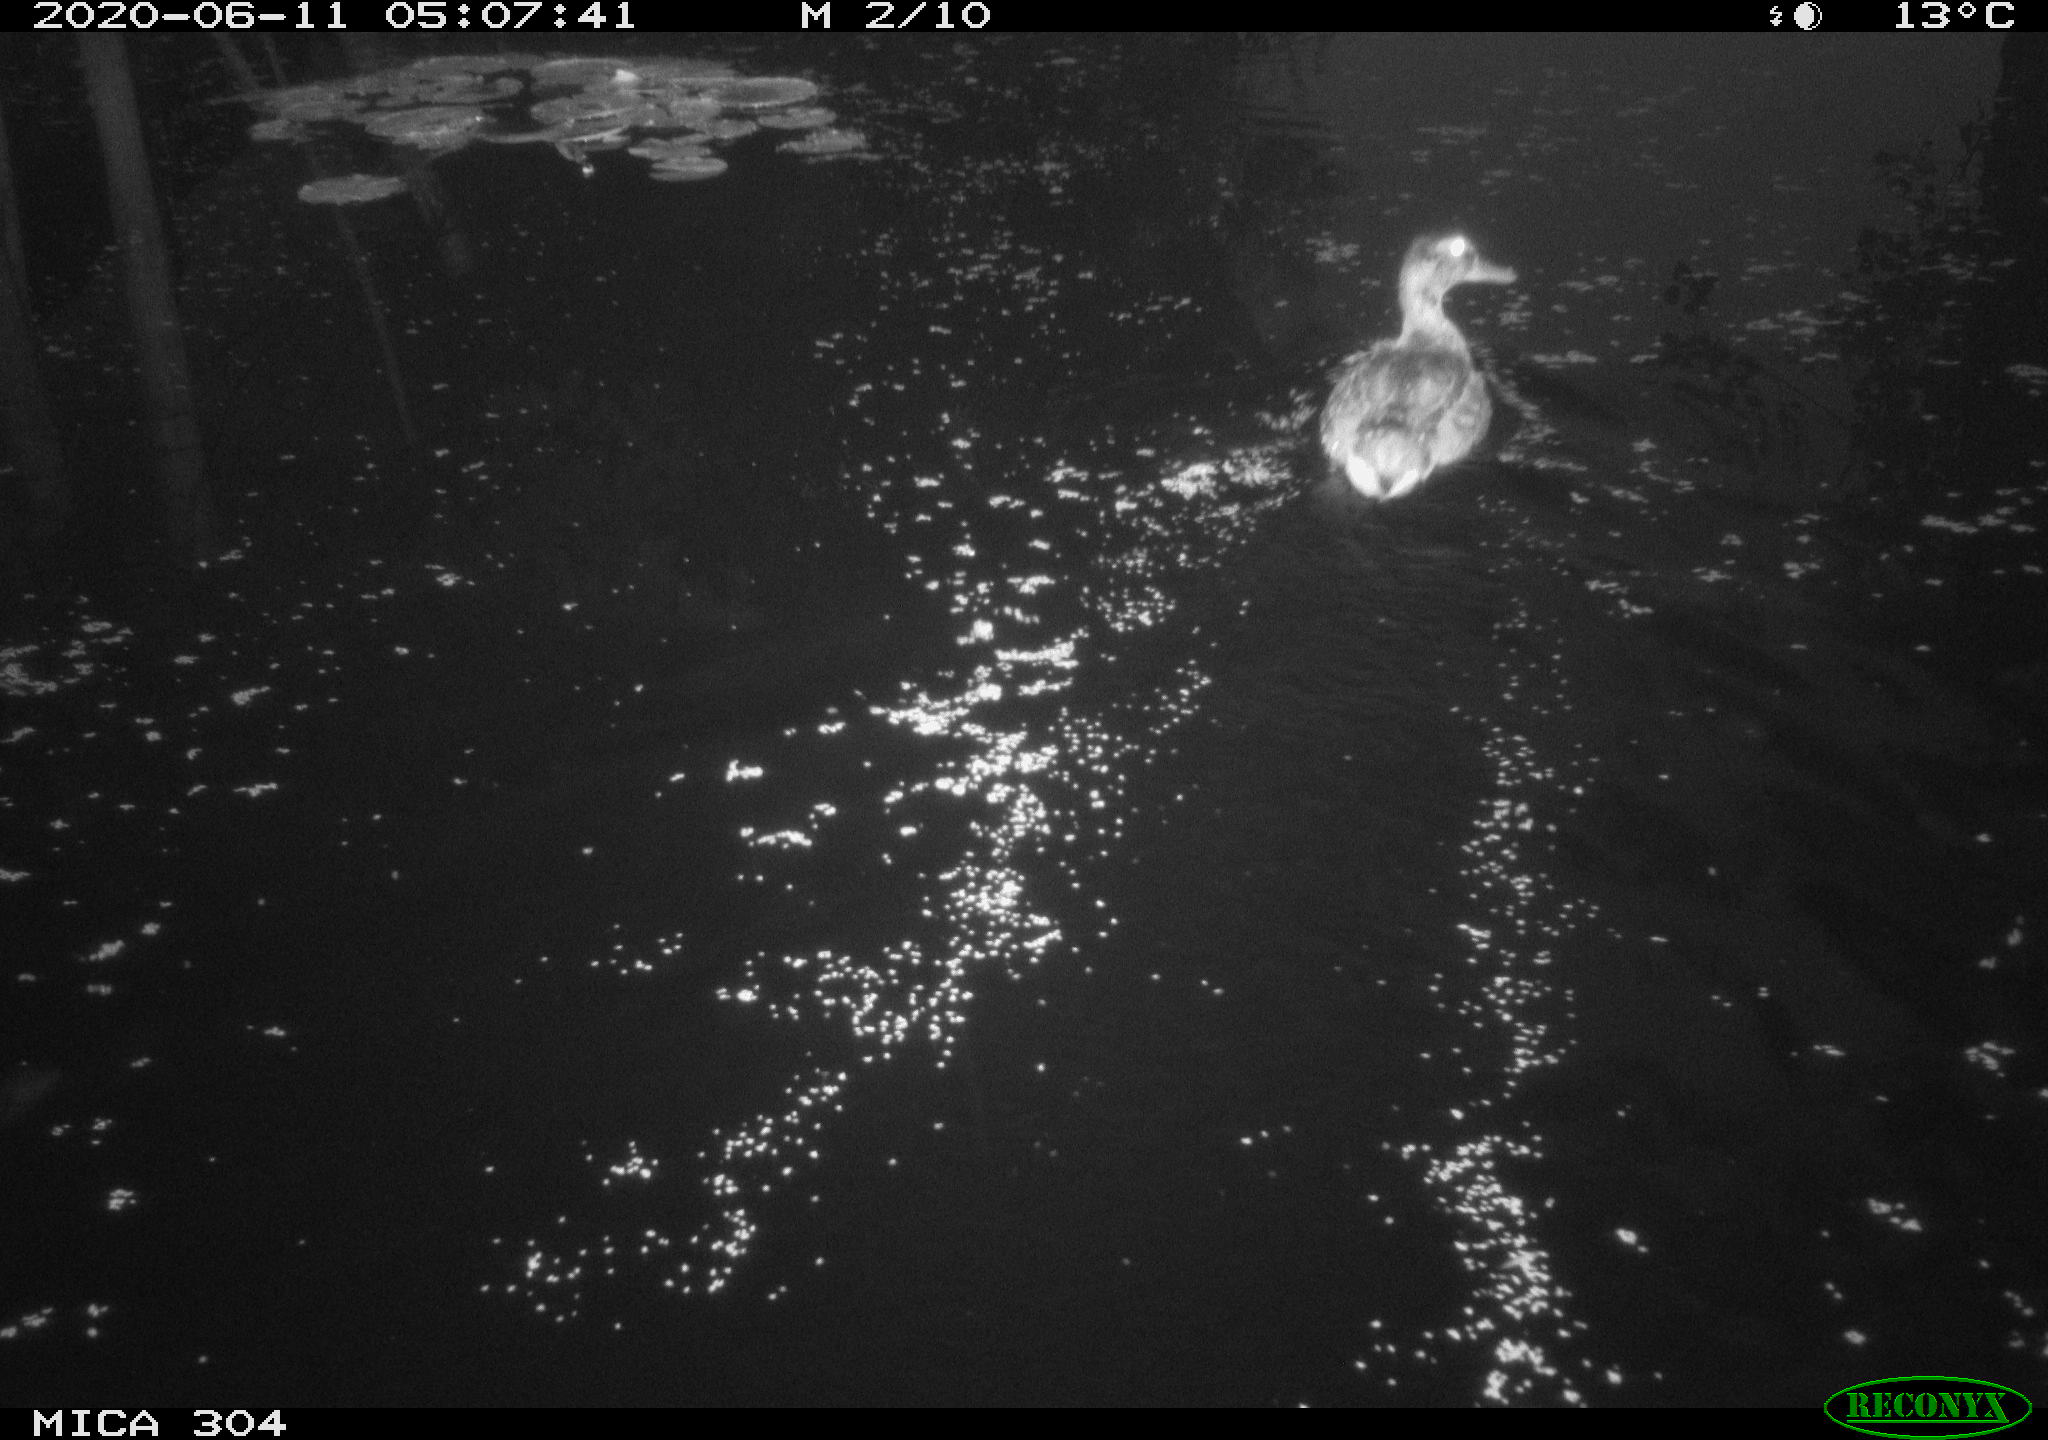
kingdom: Animalia
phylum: Chordata
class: Aves
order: Anseriformes
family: Anatidae
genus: Anas
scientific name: Anas platyrhynchos
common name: Mallard
